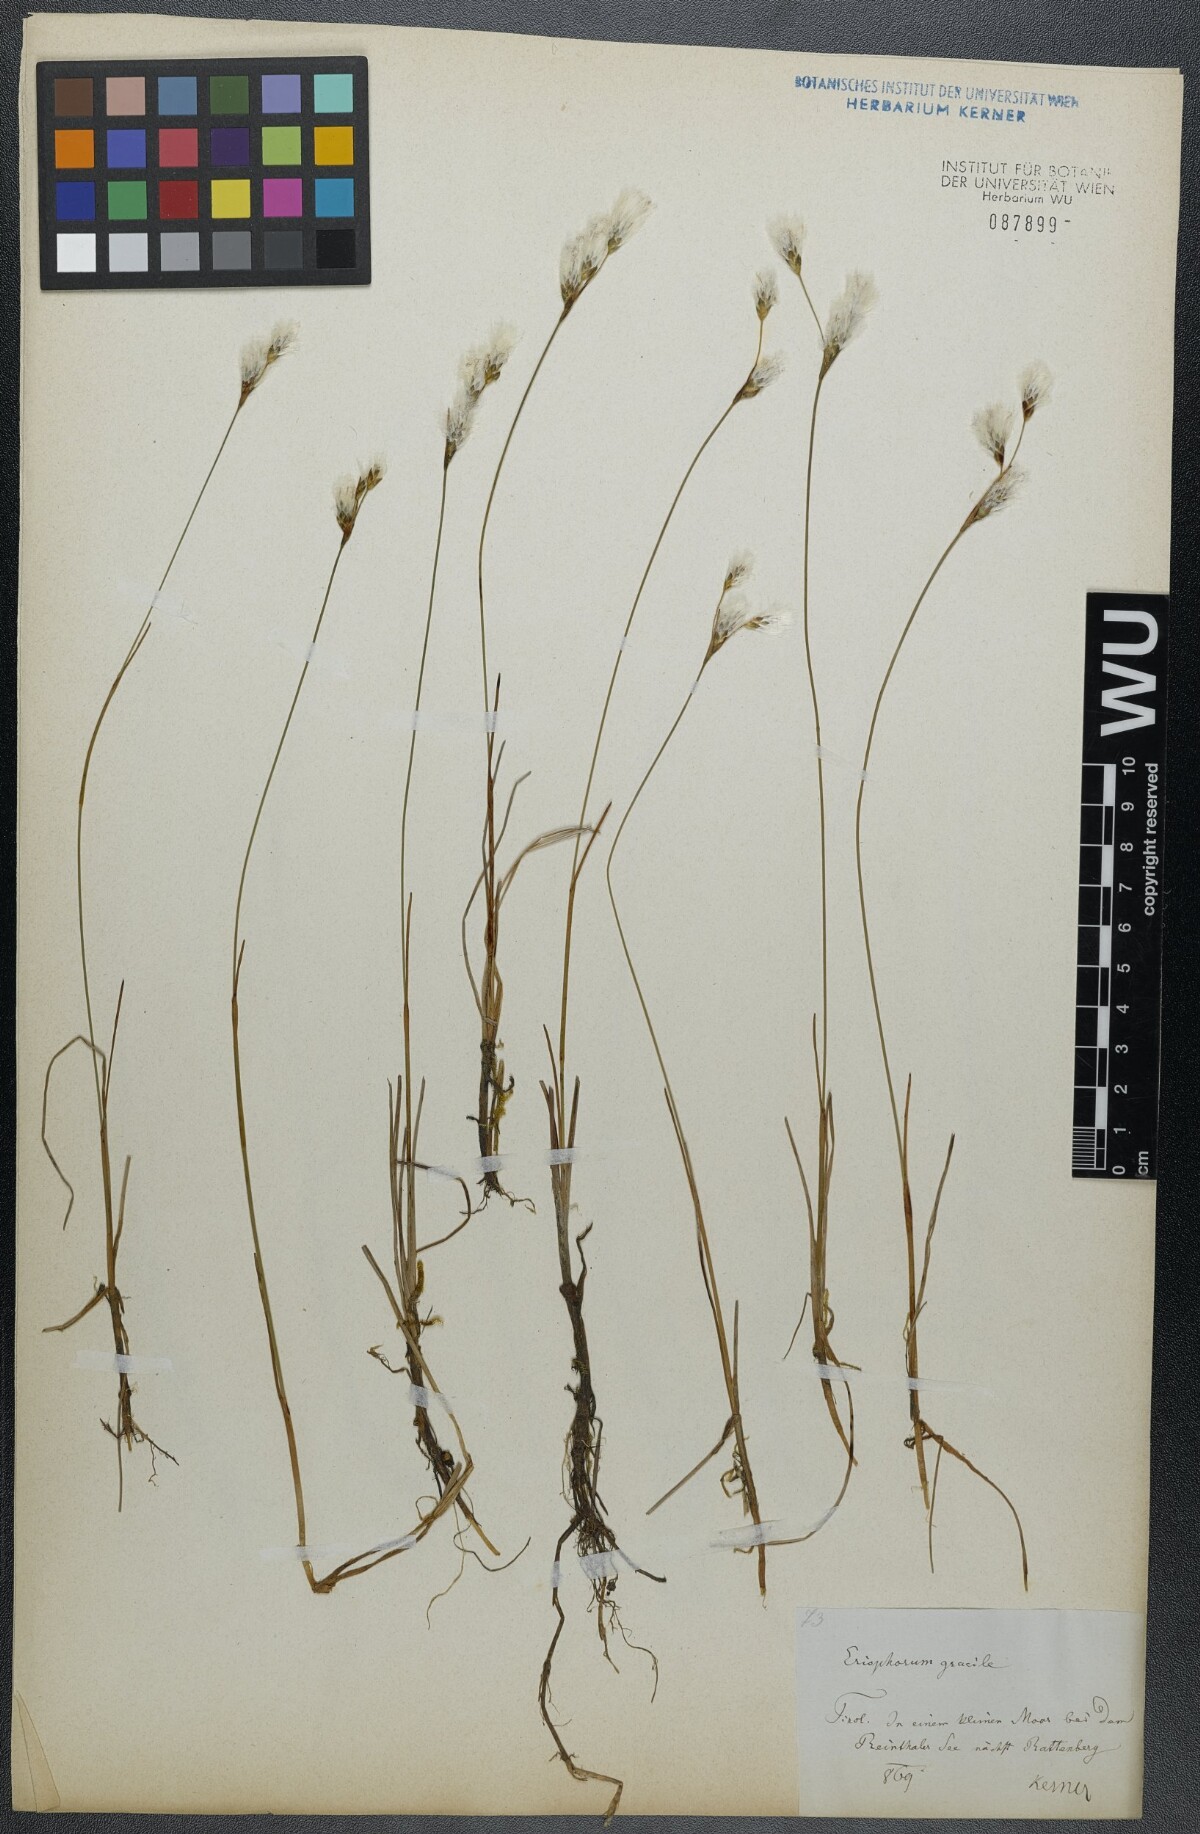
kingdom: Plantae
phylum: Tracheophyta
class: Liliopsida
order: Poales
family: Cyperaceae
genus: Eriophorum
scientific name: Eriophorum gracile
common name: Slender cottongrass
